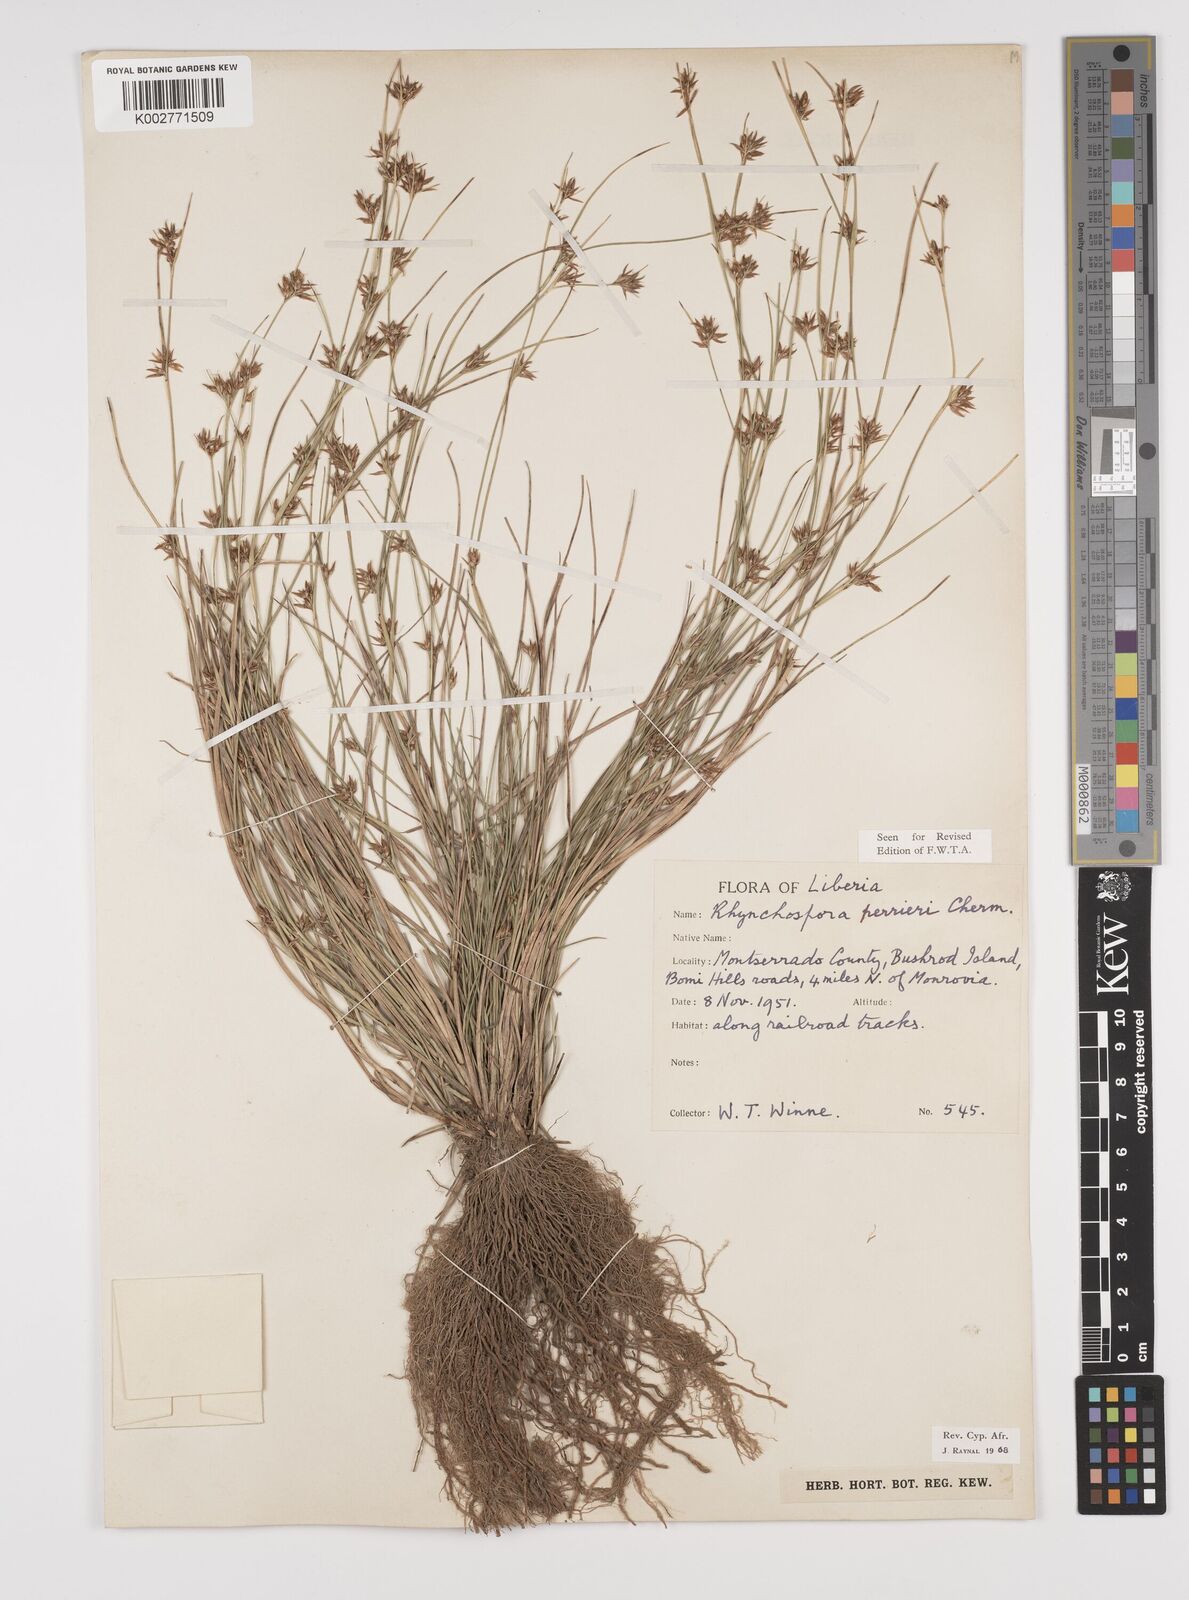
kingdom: Plantae
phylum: Tracheophyta
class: Liliopsida
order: Poales
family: Cyperaceae
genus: Rhynchospora
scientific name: Rhynchospora perrieri
